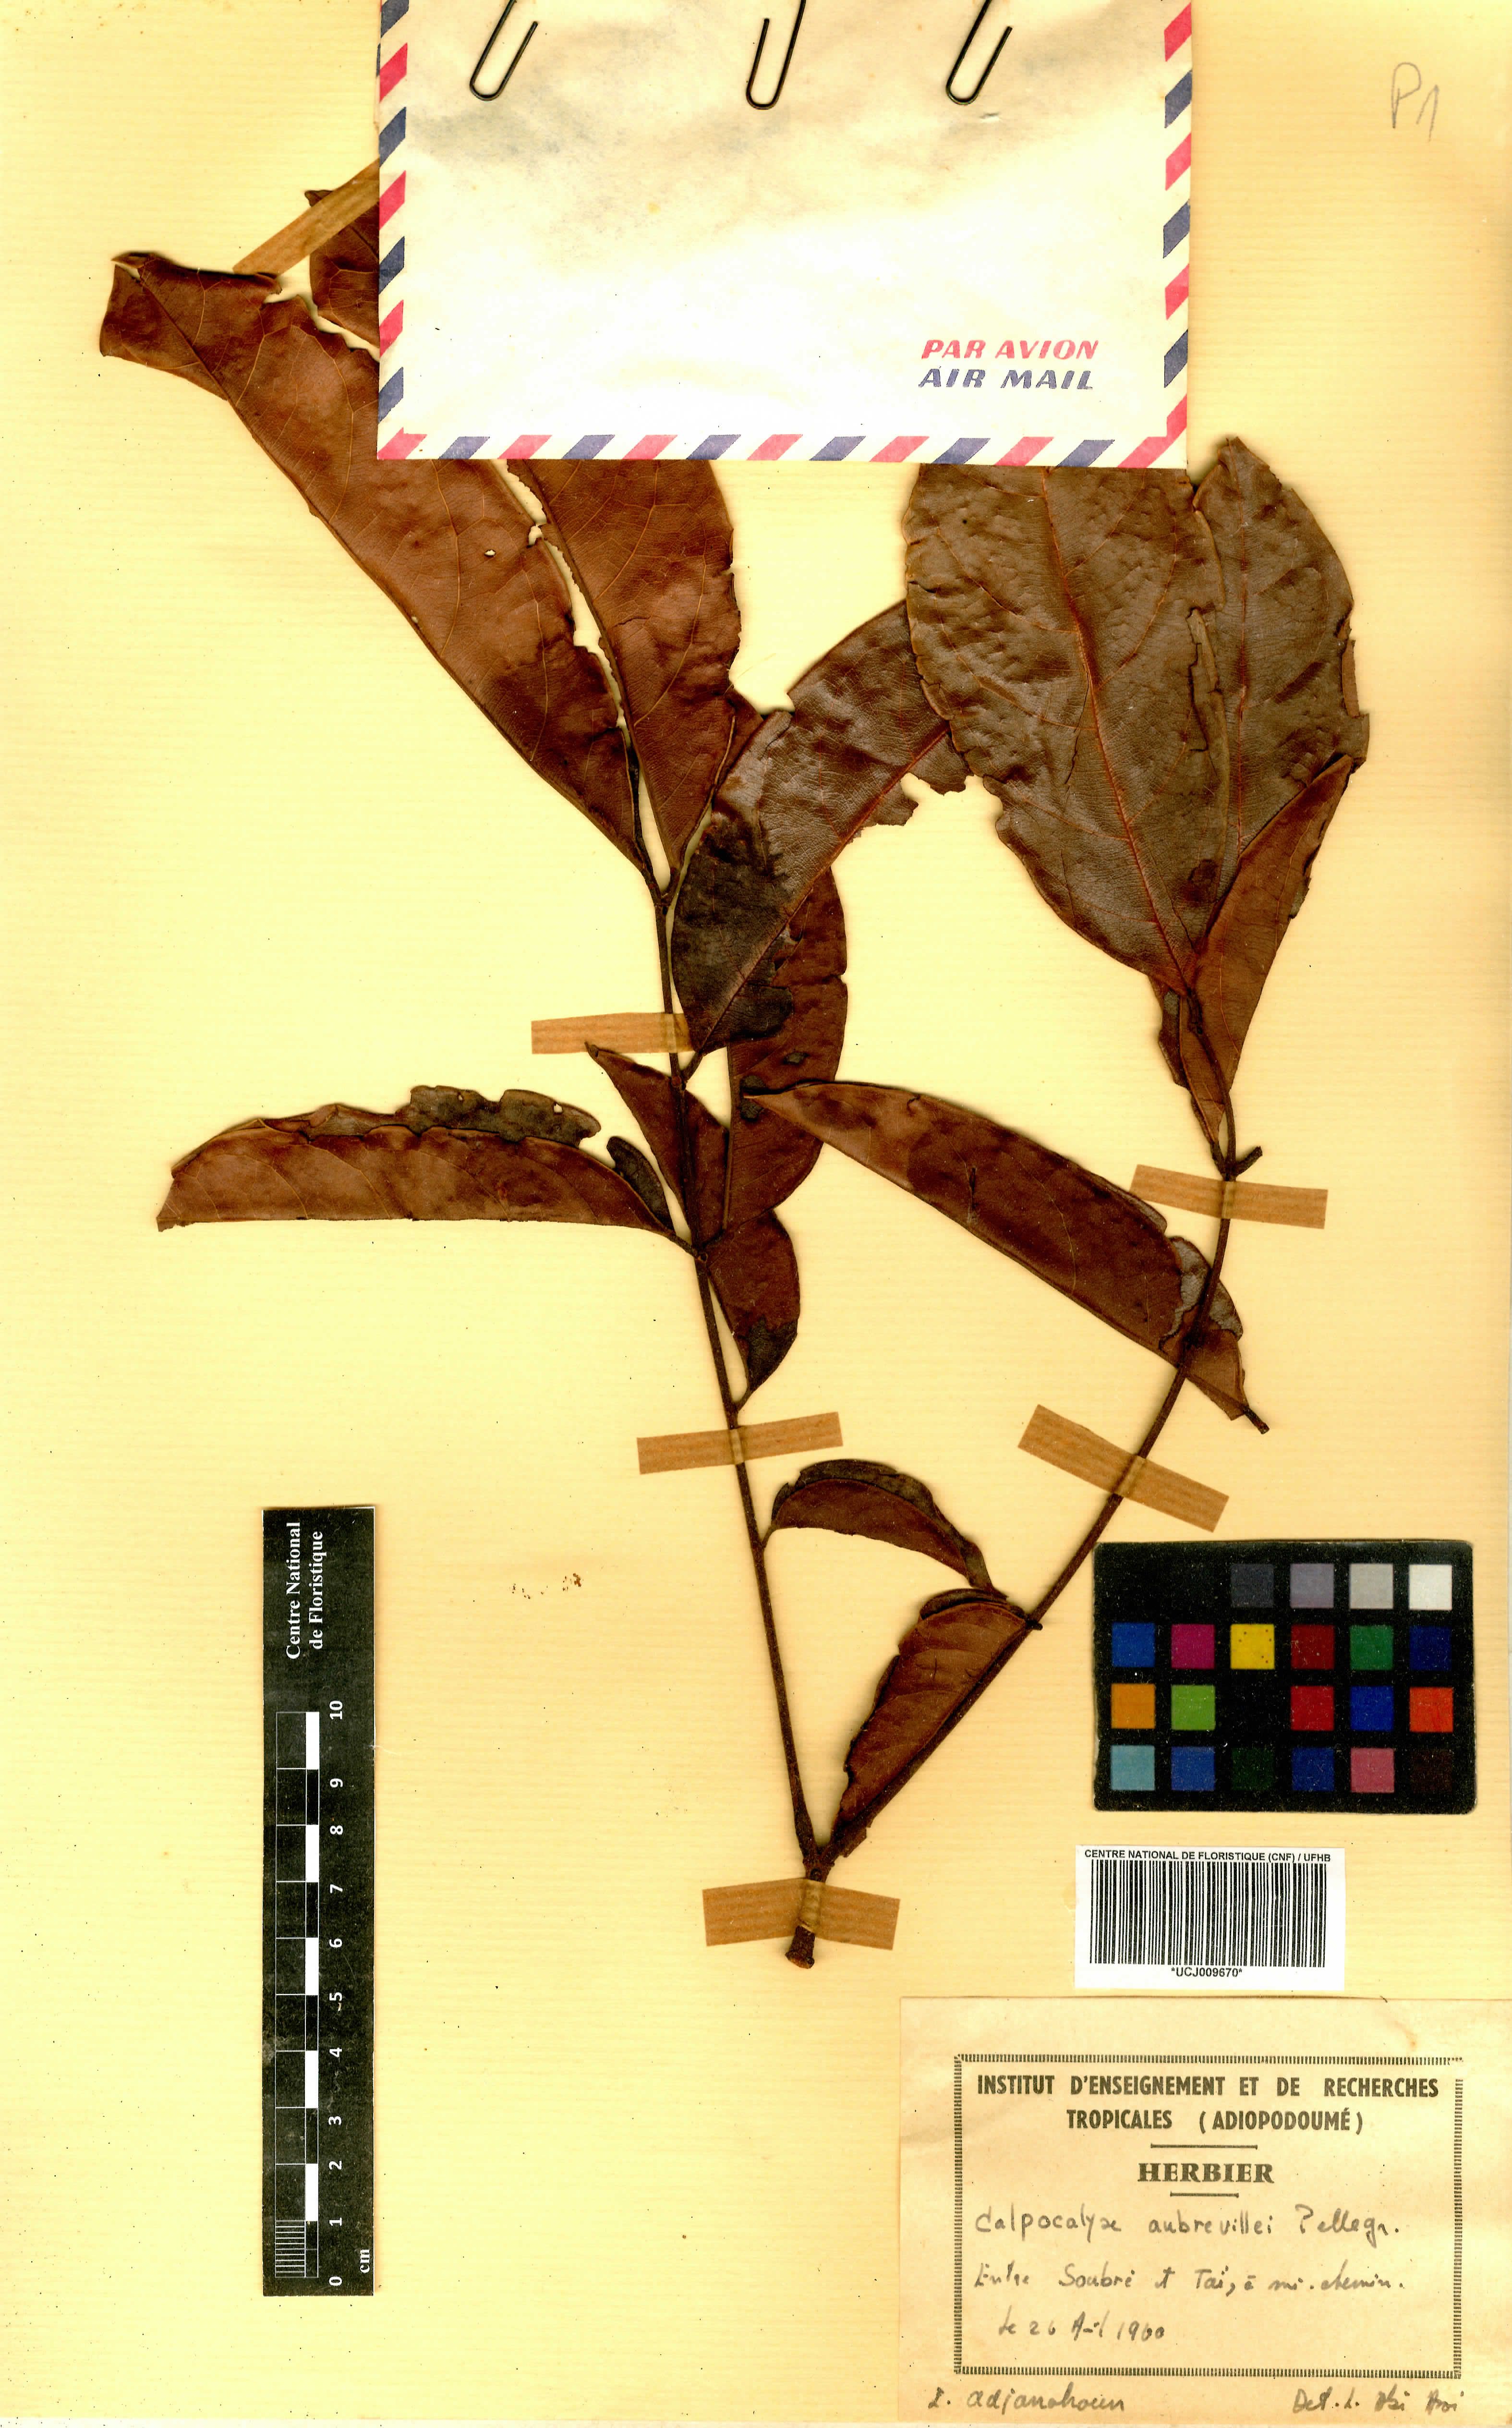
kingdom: Plantae
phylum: Tracheophyta
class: Magnoliopsida
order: Fabales
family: Fabaceae
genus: Calpocalyx
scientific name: Calpocalyx aubrevillei
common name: Badio (calpocalz)
